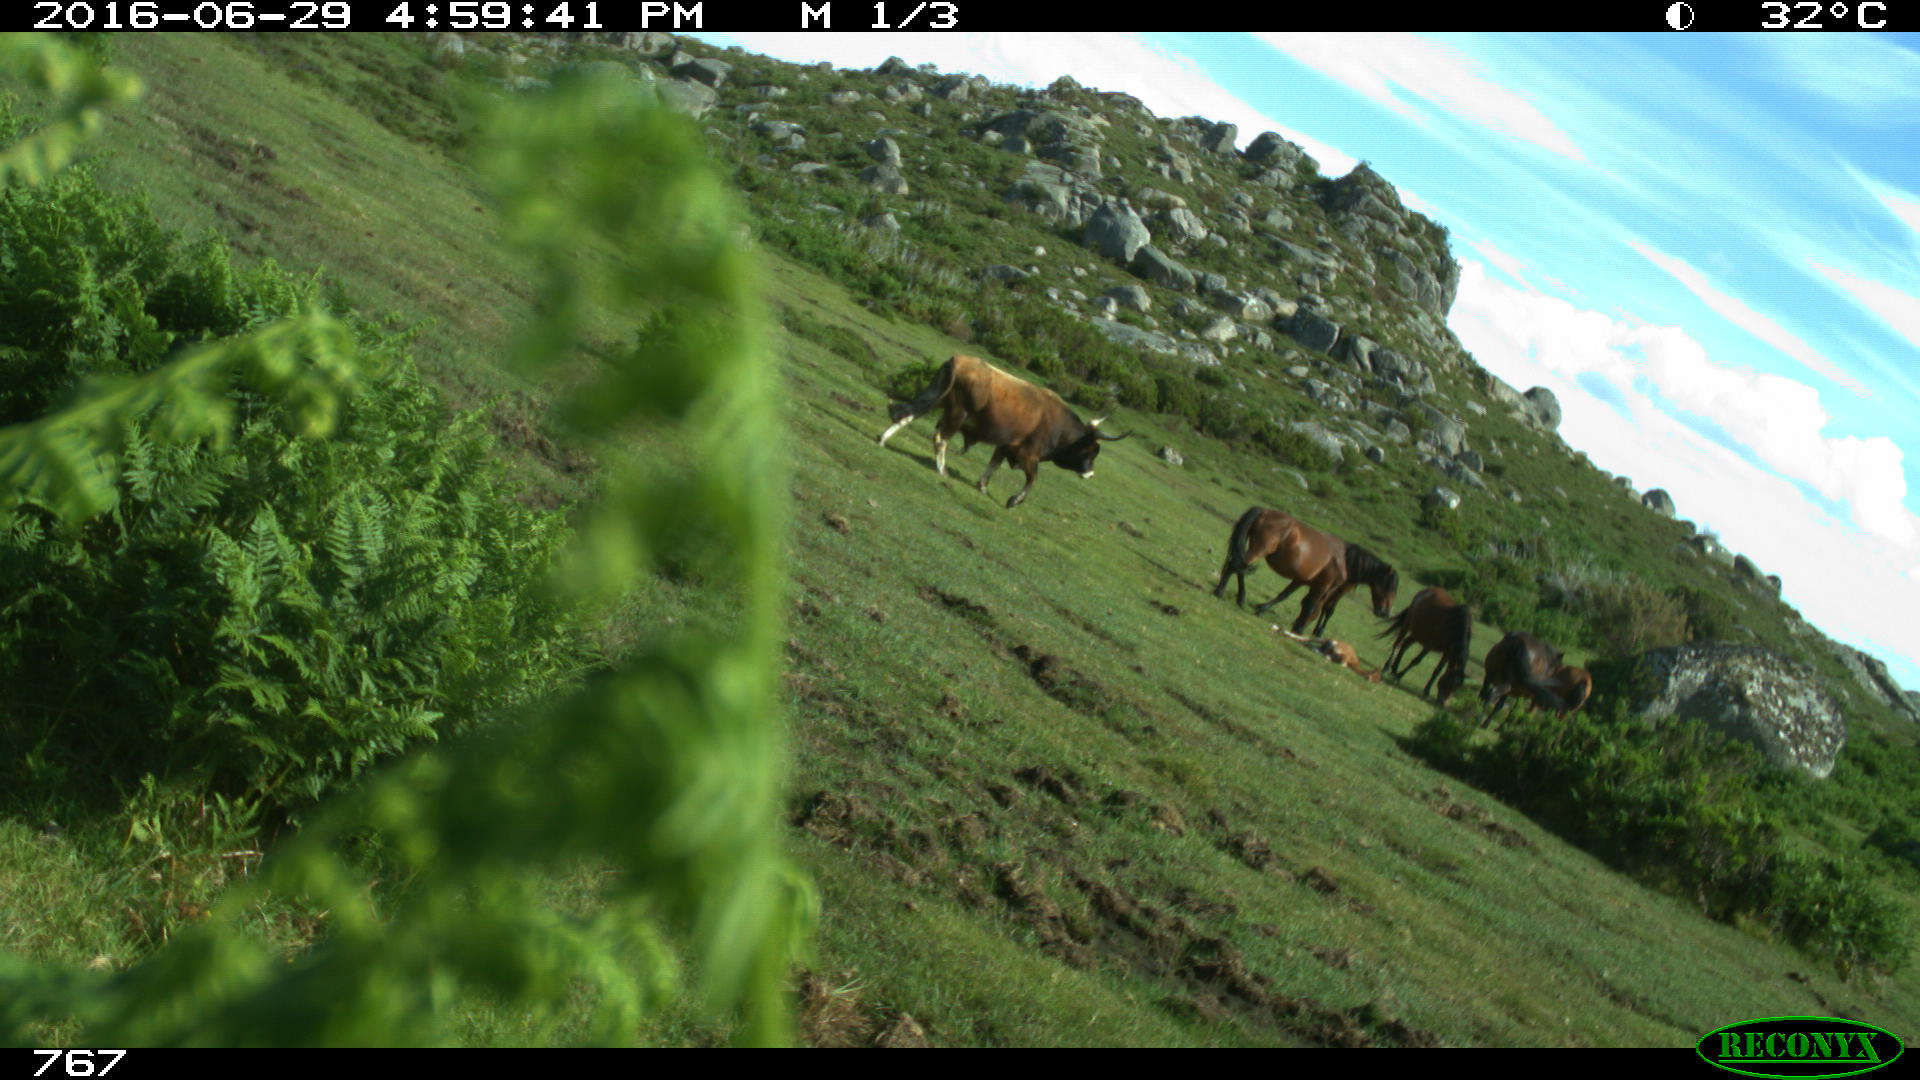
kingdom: Animalia
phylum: Chordata
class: Mammalia
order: Artiodactyla
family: Bovidae
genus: Bos
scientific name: Bos taurus
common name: Domesticated cattle
